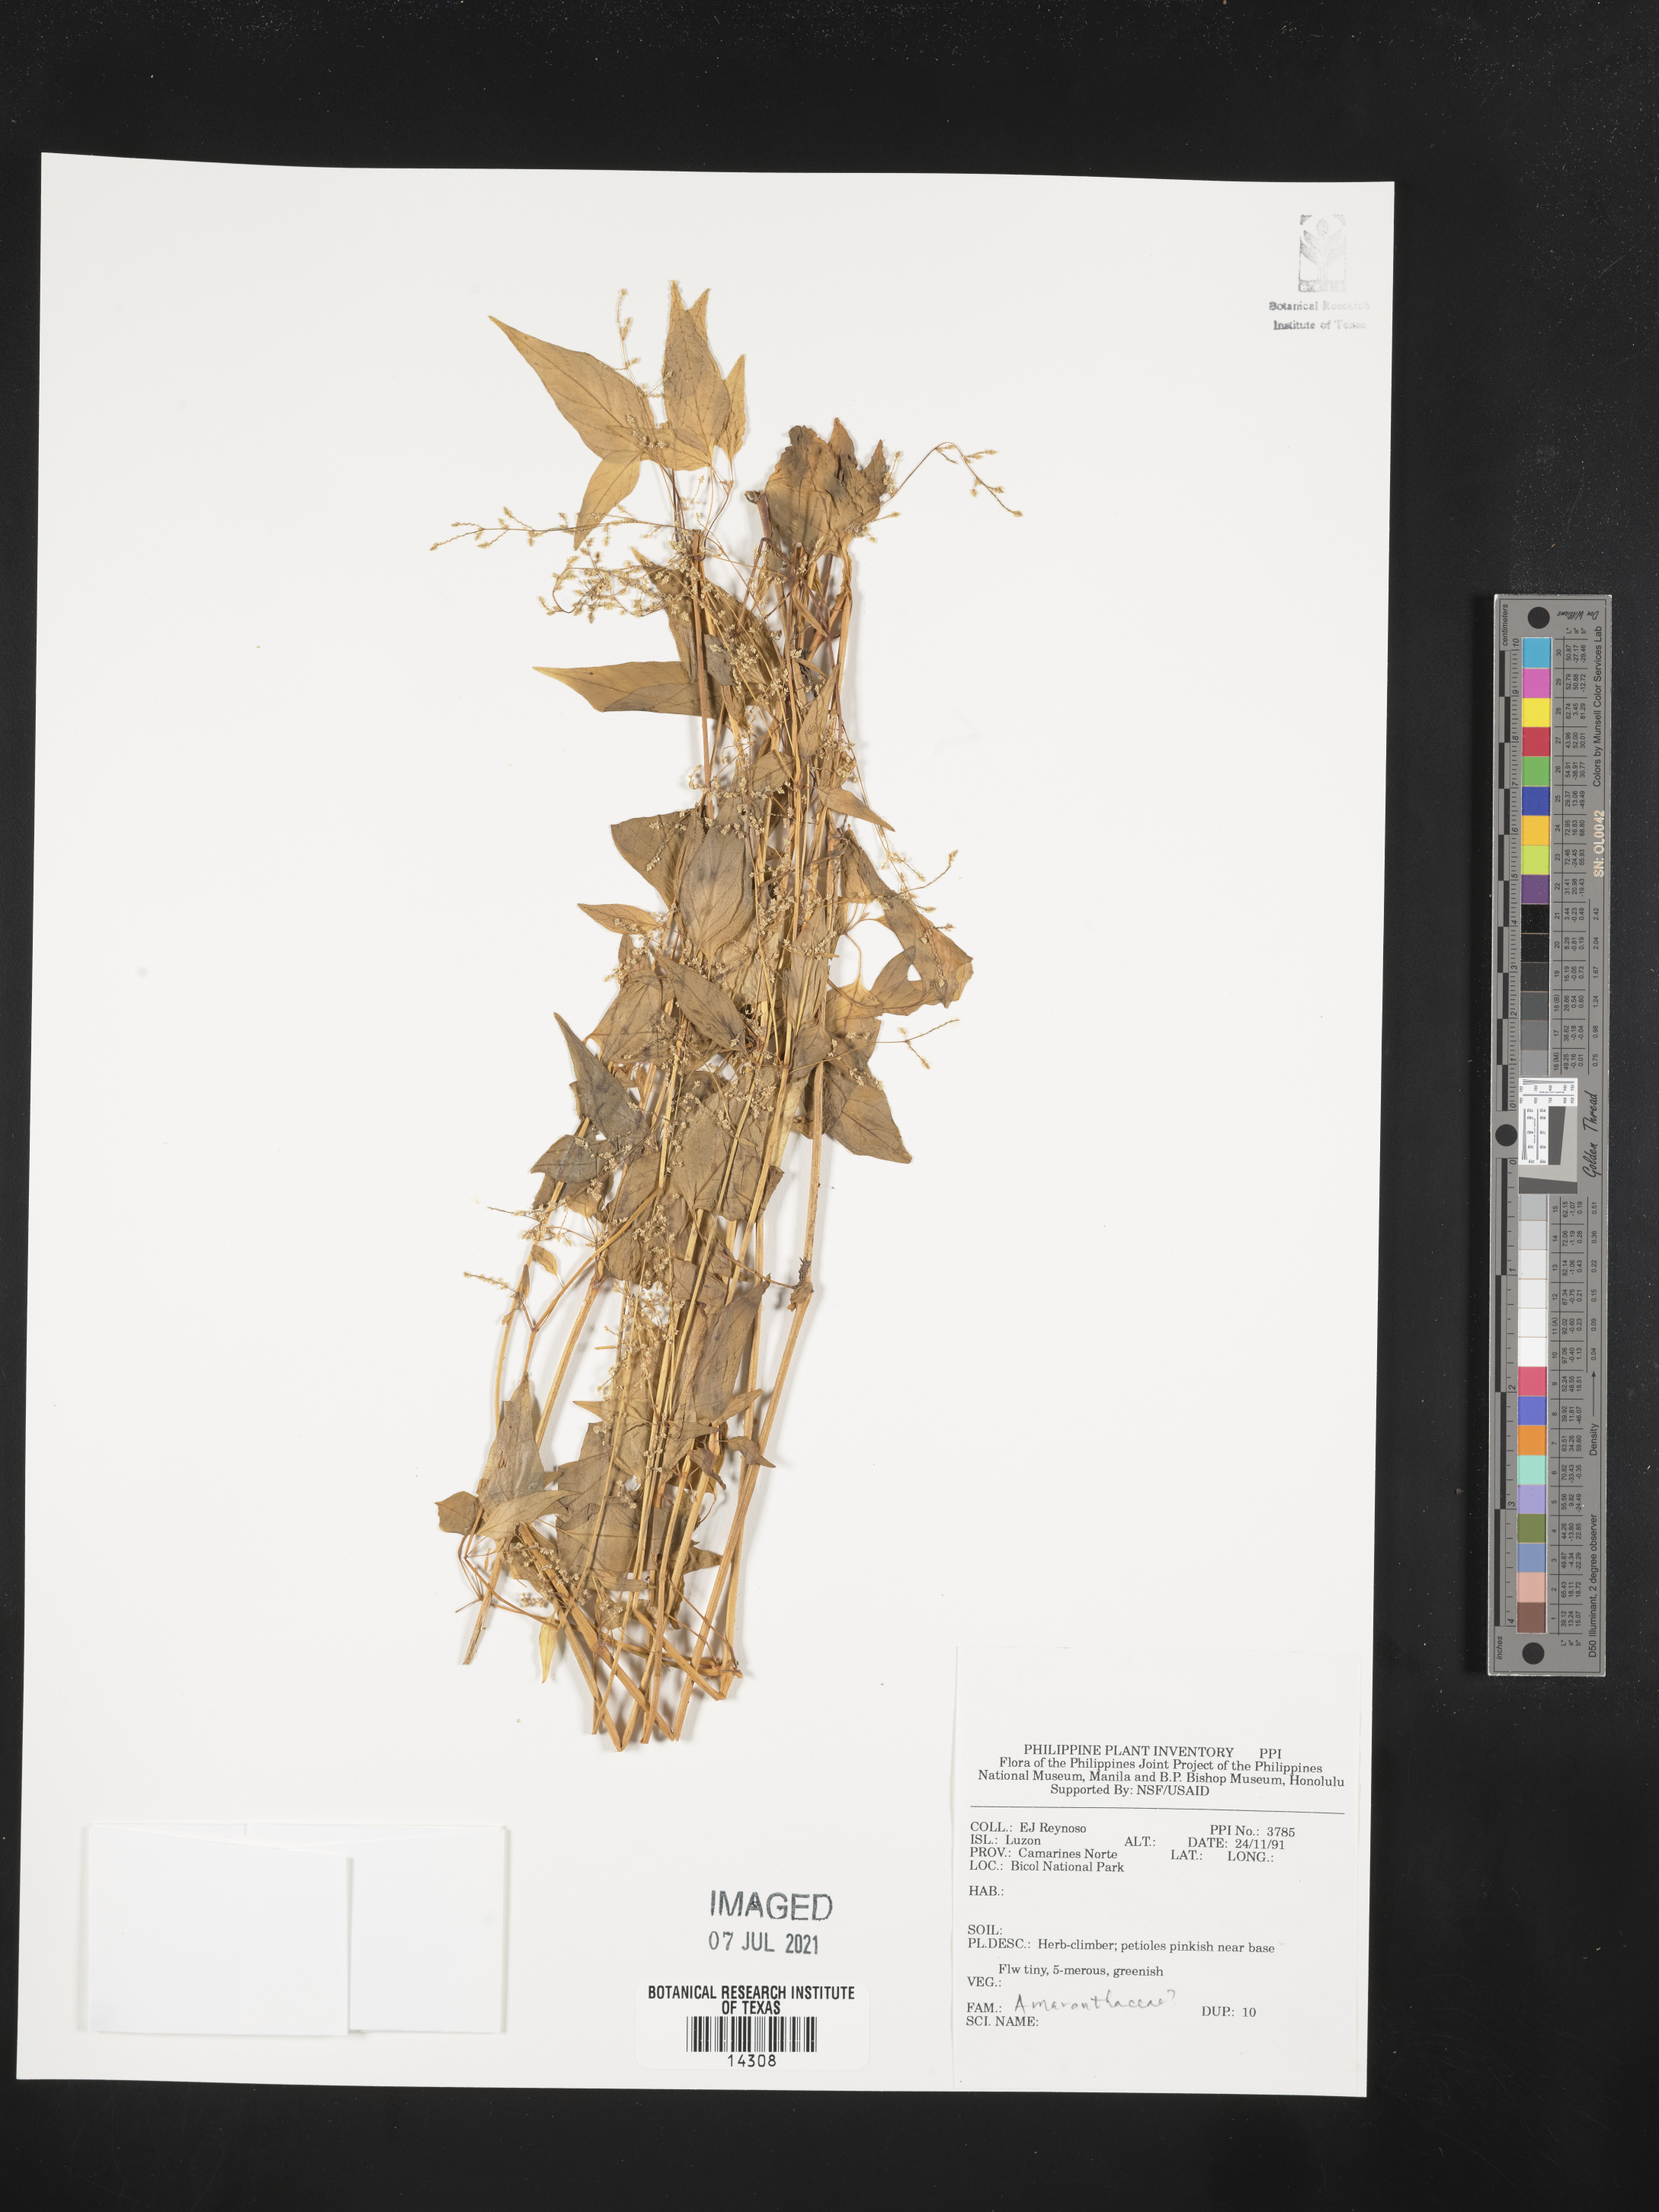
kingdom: Plantae
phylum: Tracheophyta
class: Magnoliopsida
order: Caryophyllales
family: Amaranthaceae
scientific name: Amaranthaceae
